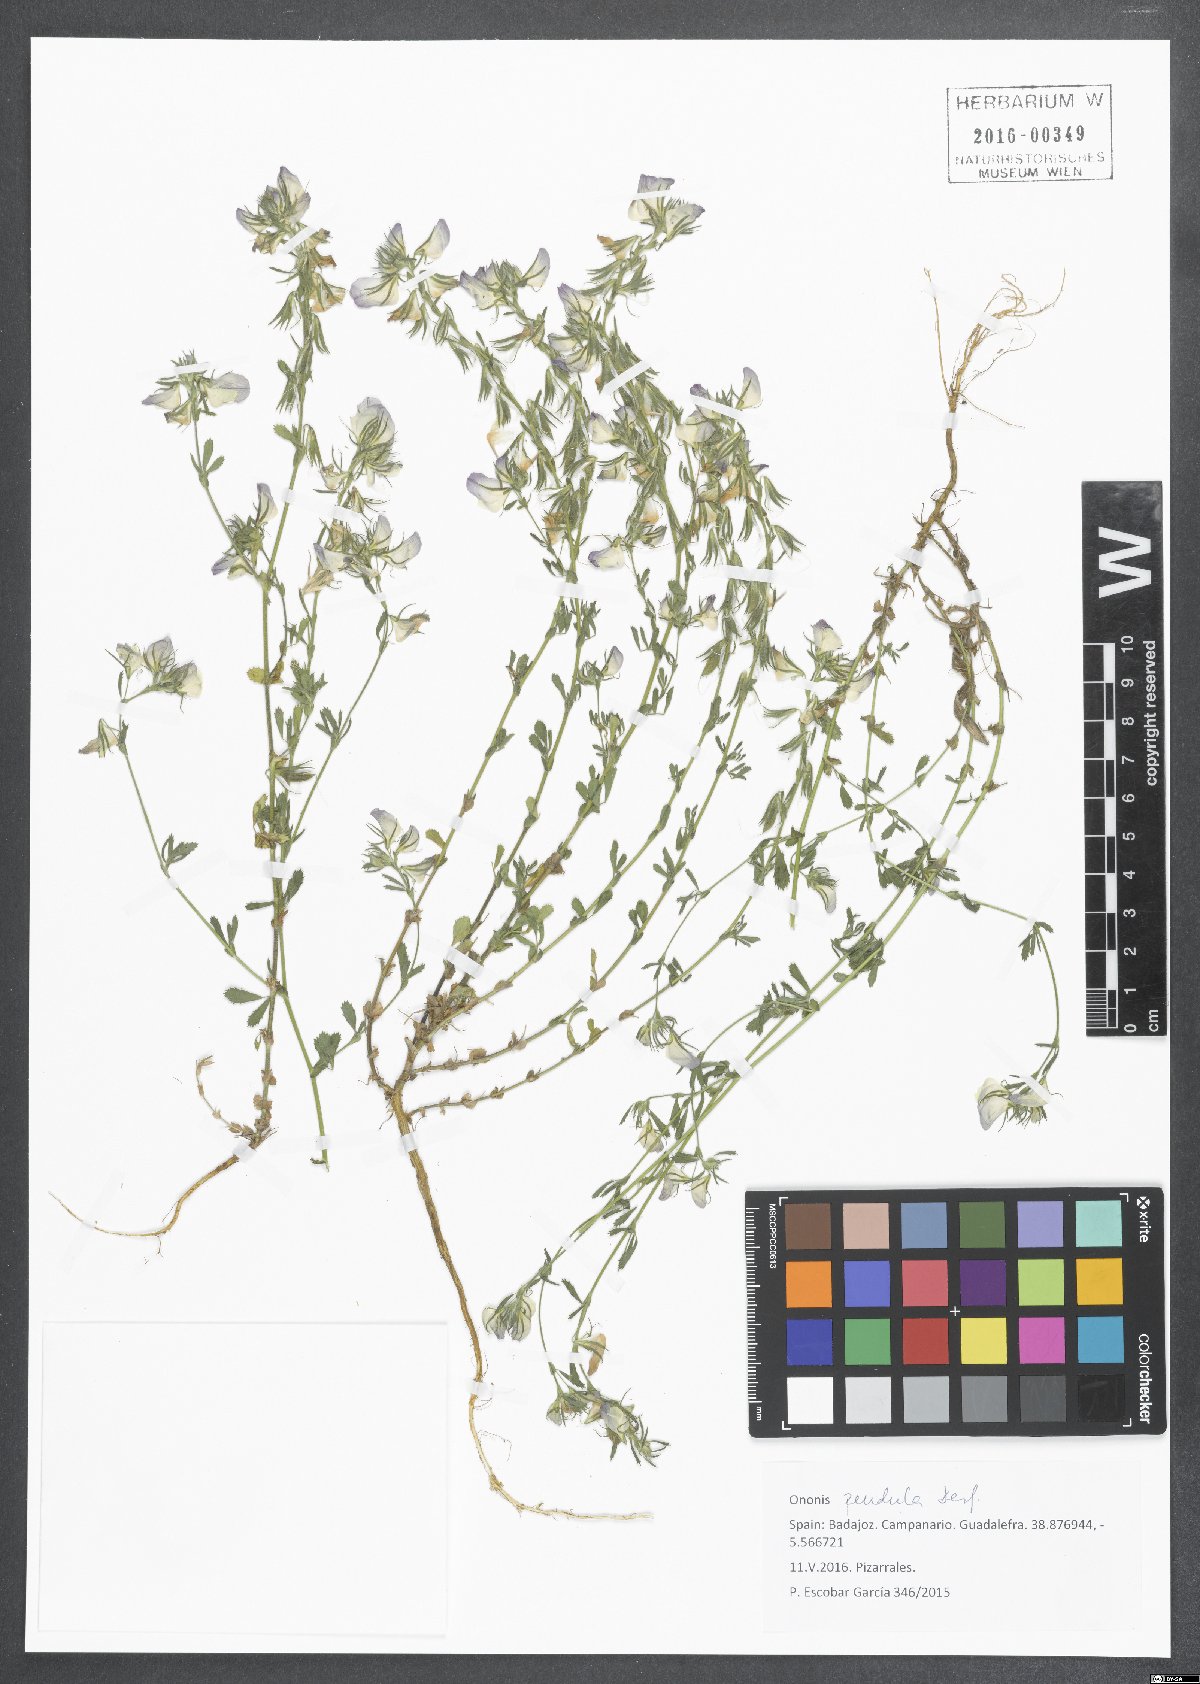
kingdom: Plantae
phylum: Tracheophyta
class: Magnoliopsida
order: Fabales
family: Fabaceae
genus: Ononis
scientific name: Ononis pendula
